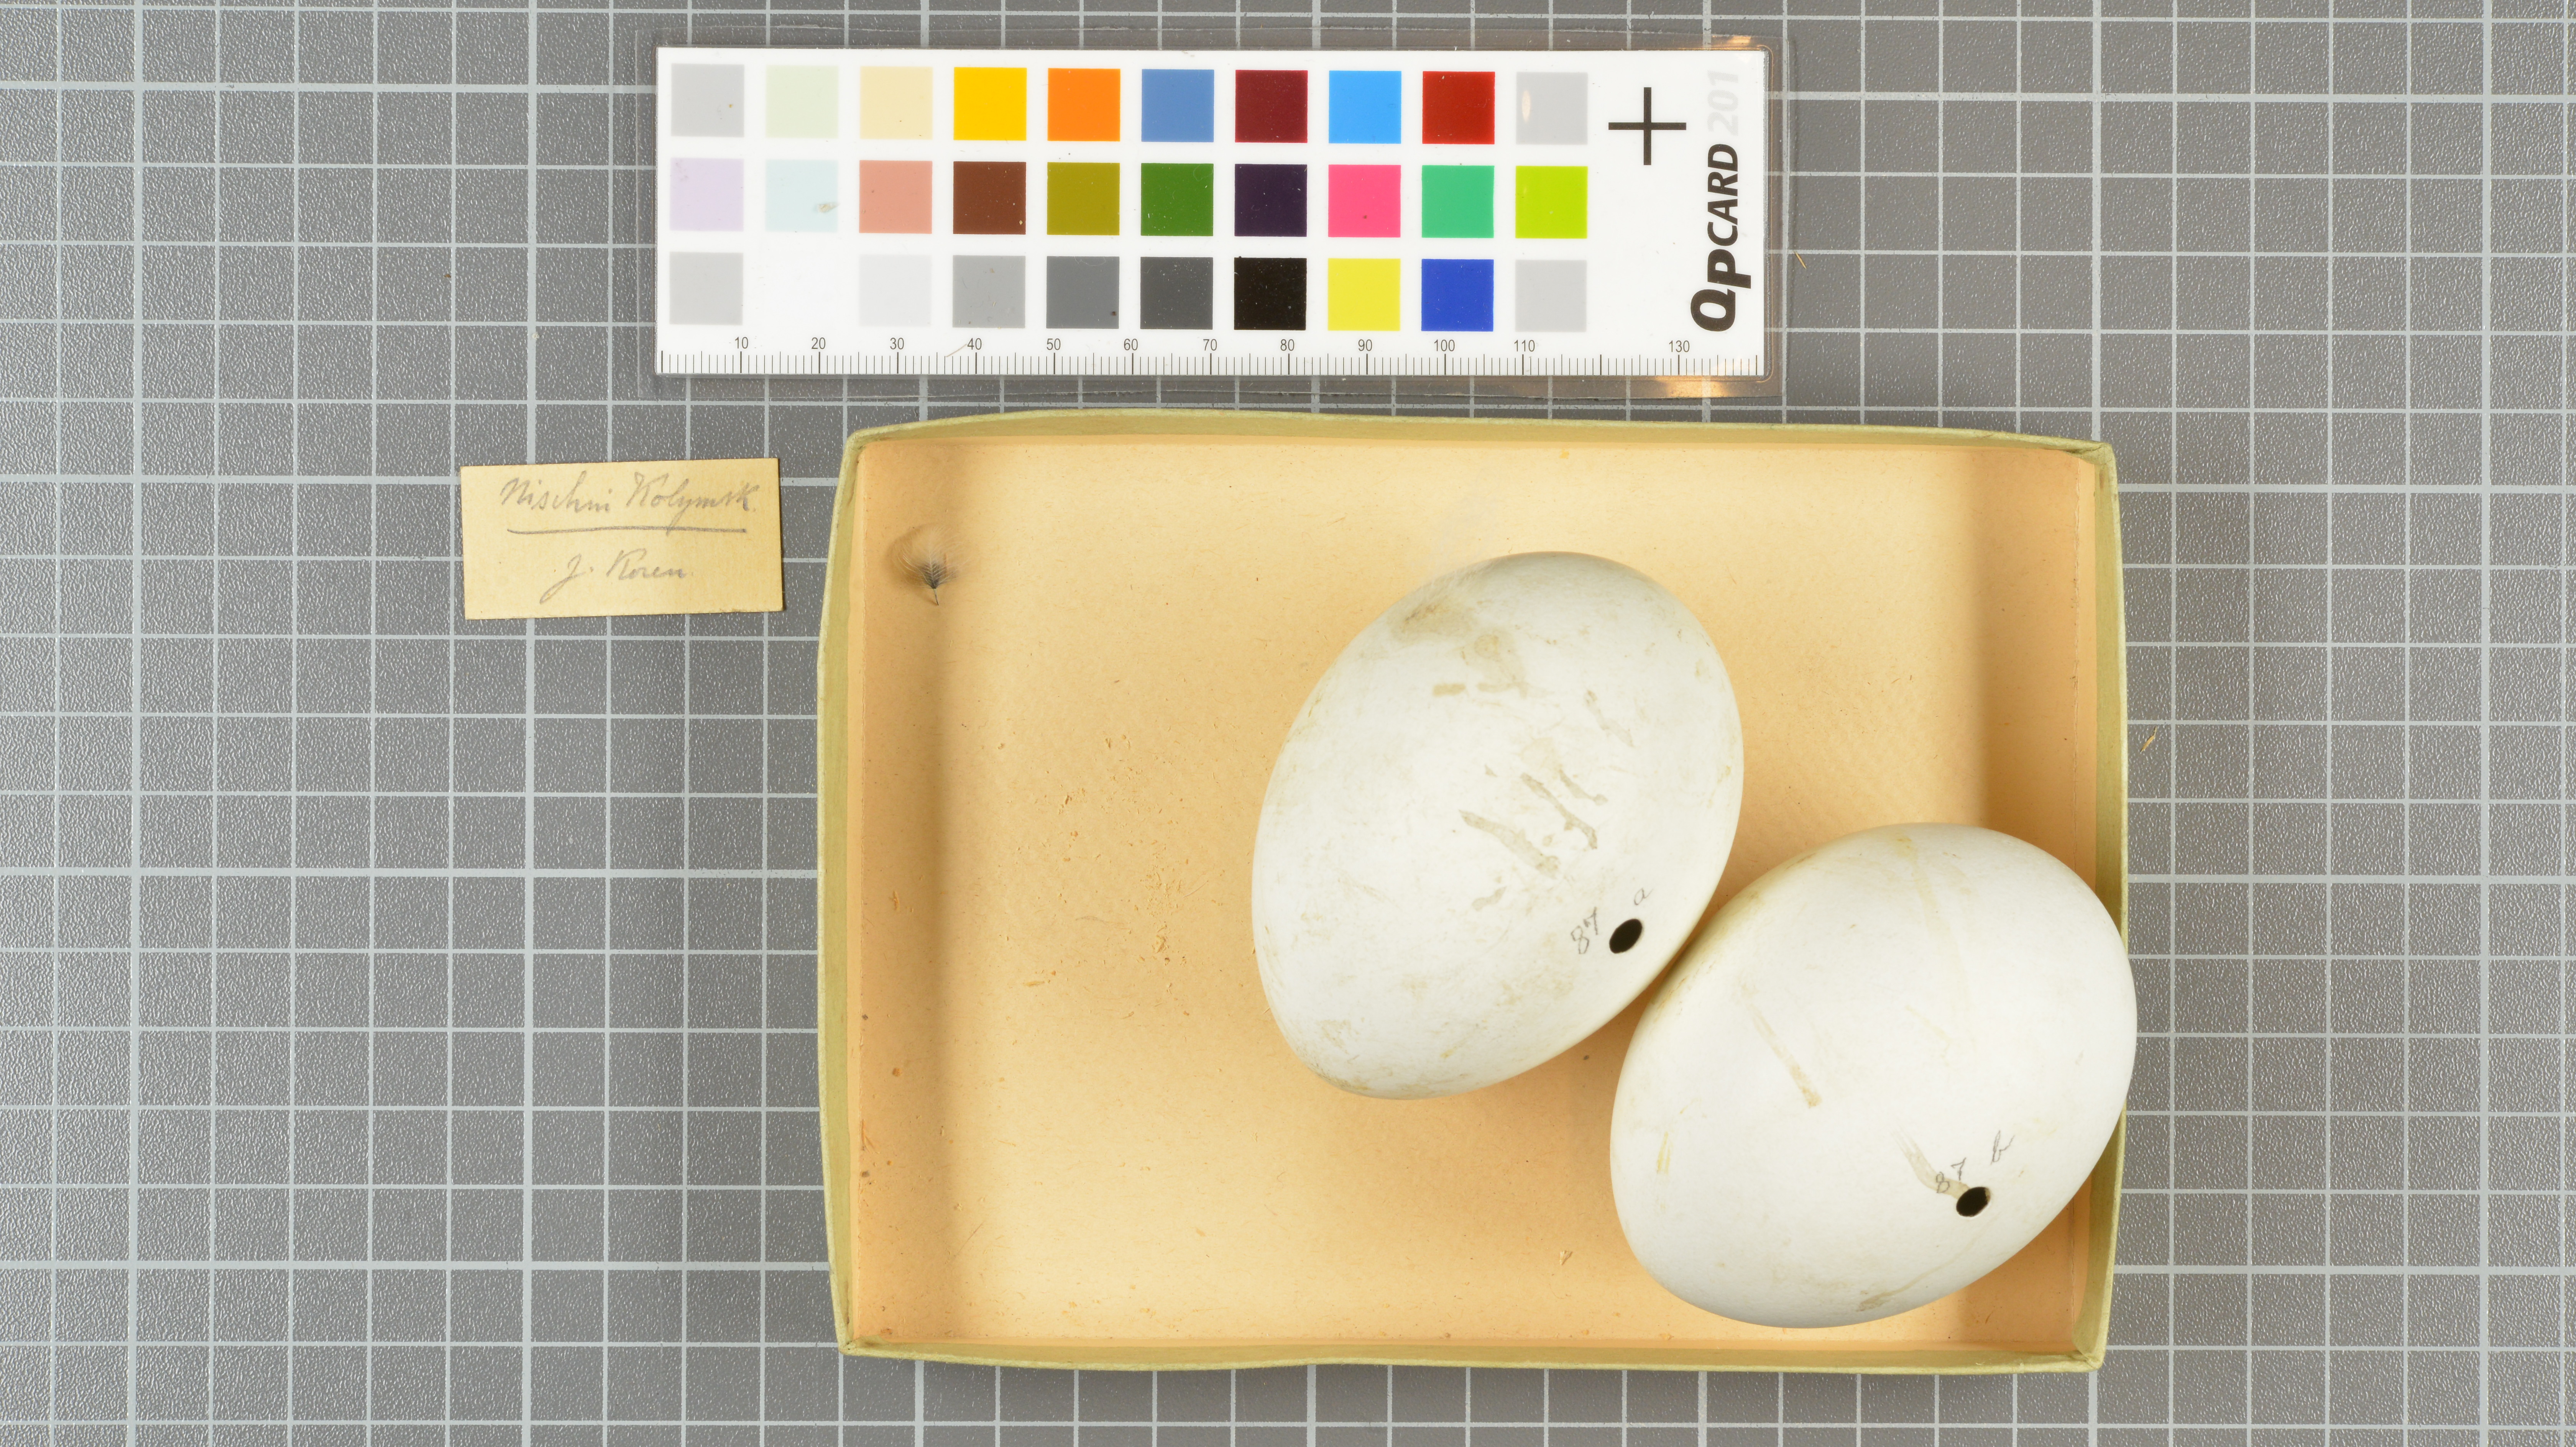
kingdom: Animalia
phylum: Chordata
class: Aves
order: Accipitriformes
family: Accipitridae
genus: Haliaeetus
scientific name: Haliaeetus albicilla
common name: White-tailed eagle
